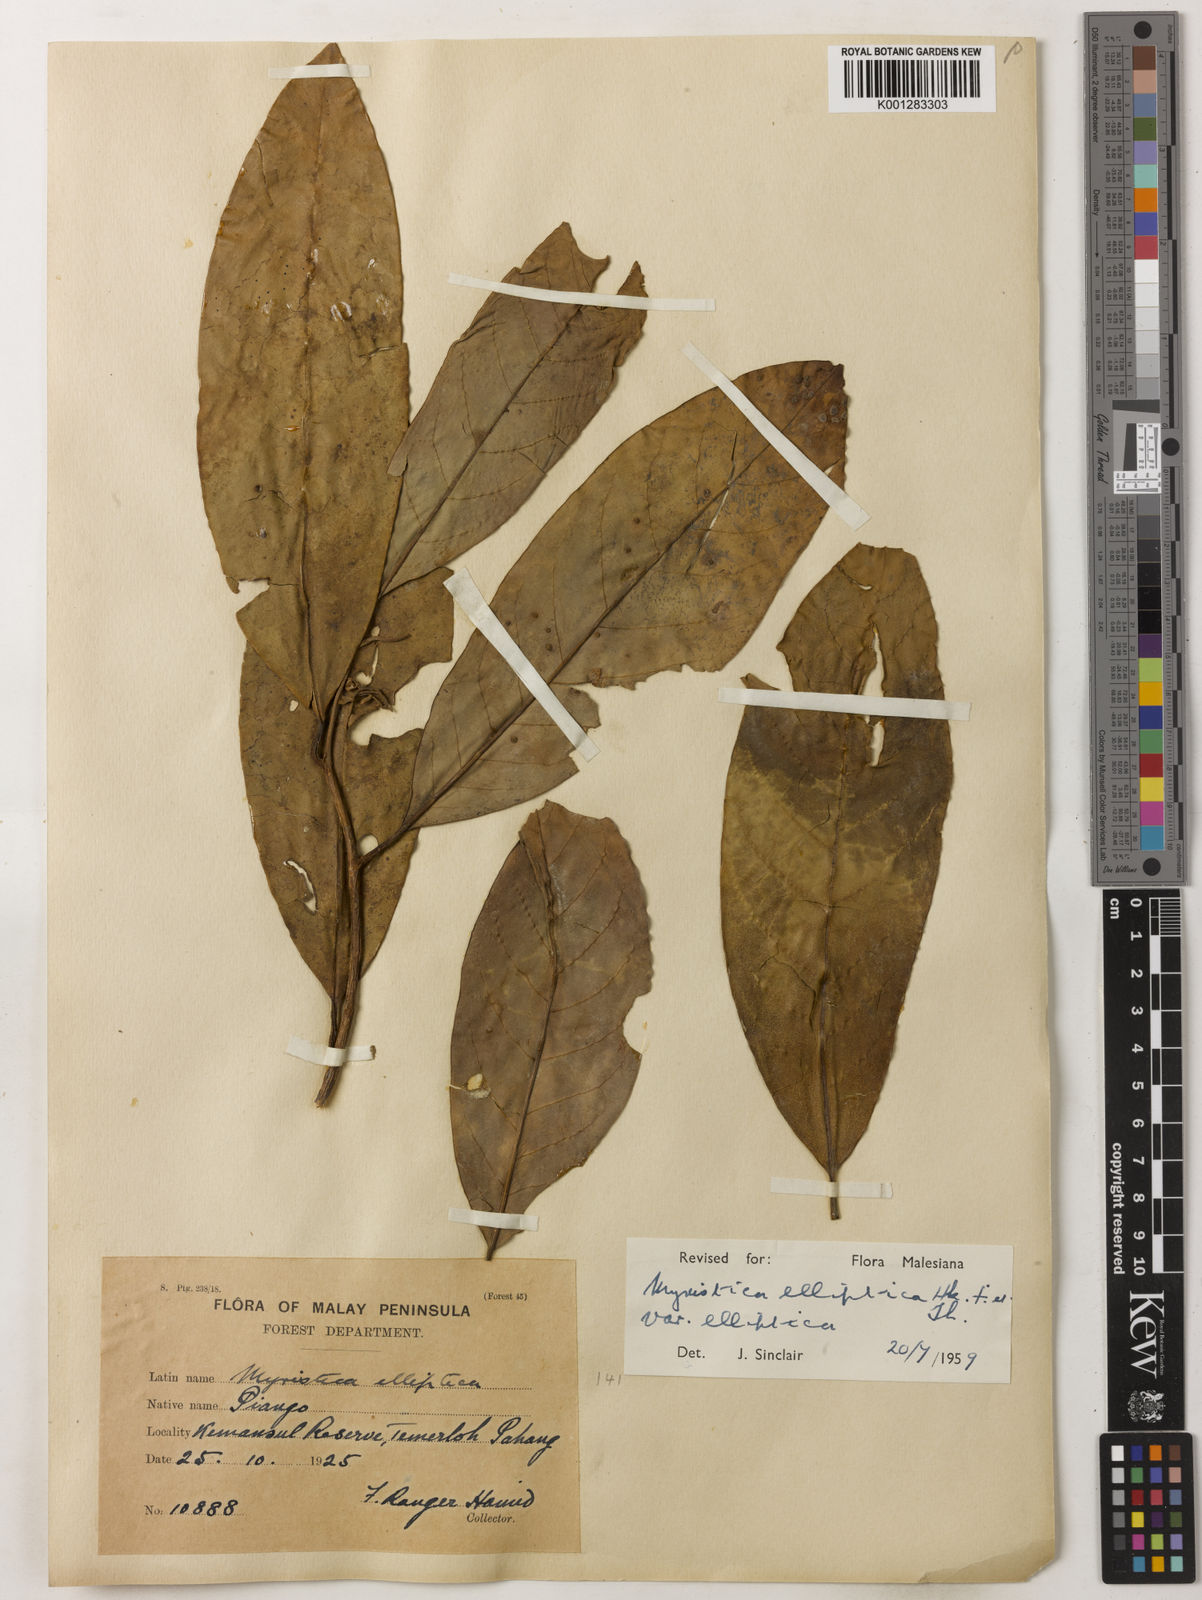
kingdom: Plantae
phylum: Tracheophyta
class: Magnoliopsida
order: Magnoliales
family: Myristicaceae
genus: Myristica
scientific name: Myristica elliptica
